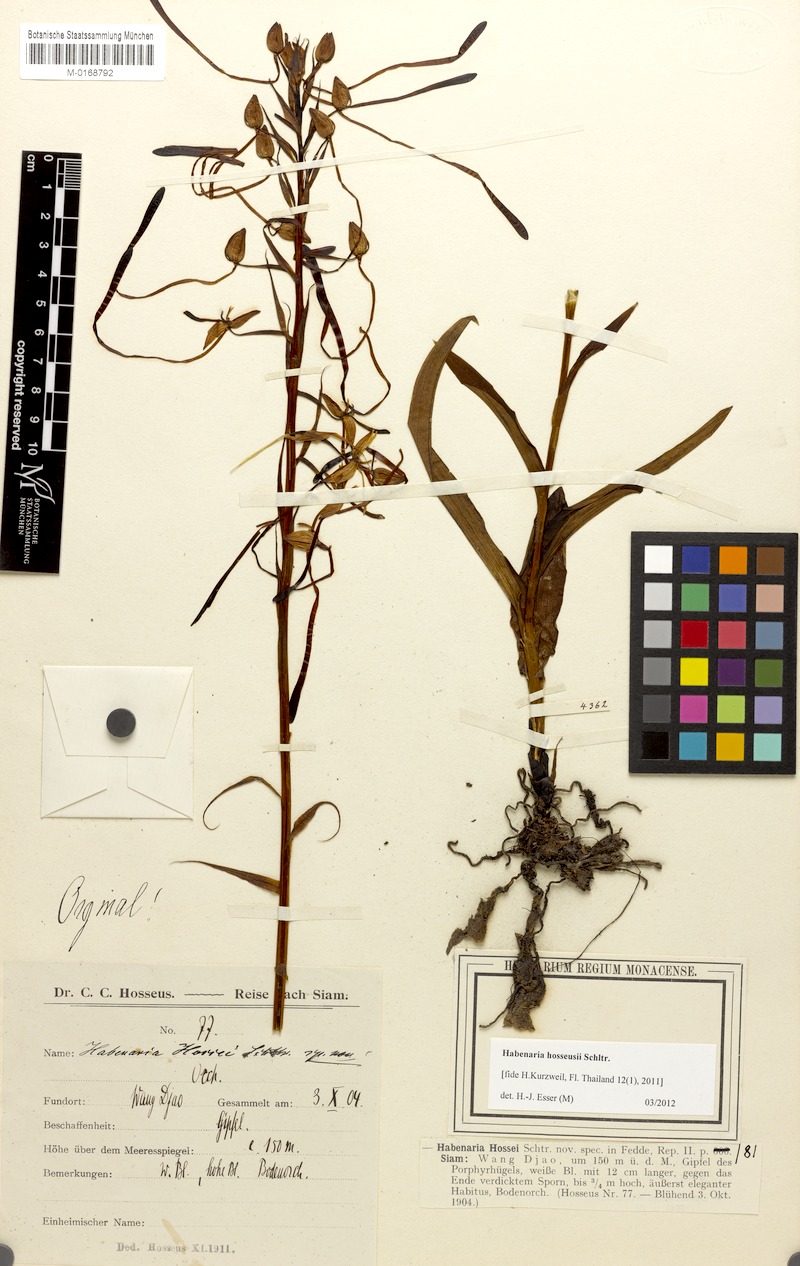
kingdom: Plantae
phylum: Tracheophyta
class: Liliopsida
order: Asparagales
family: Orchidaceae
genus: Habenaria
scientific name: Habenaria hosseusii
